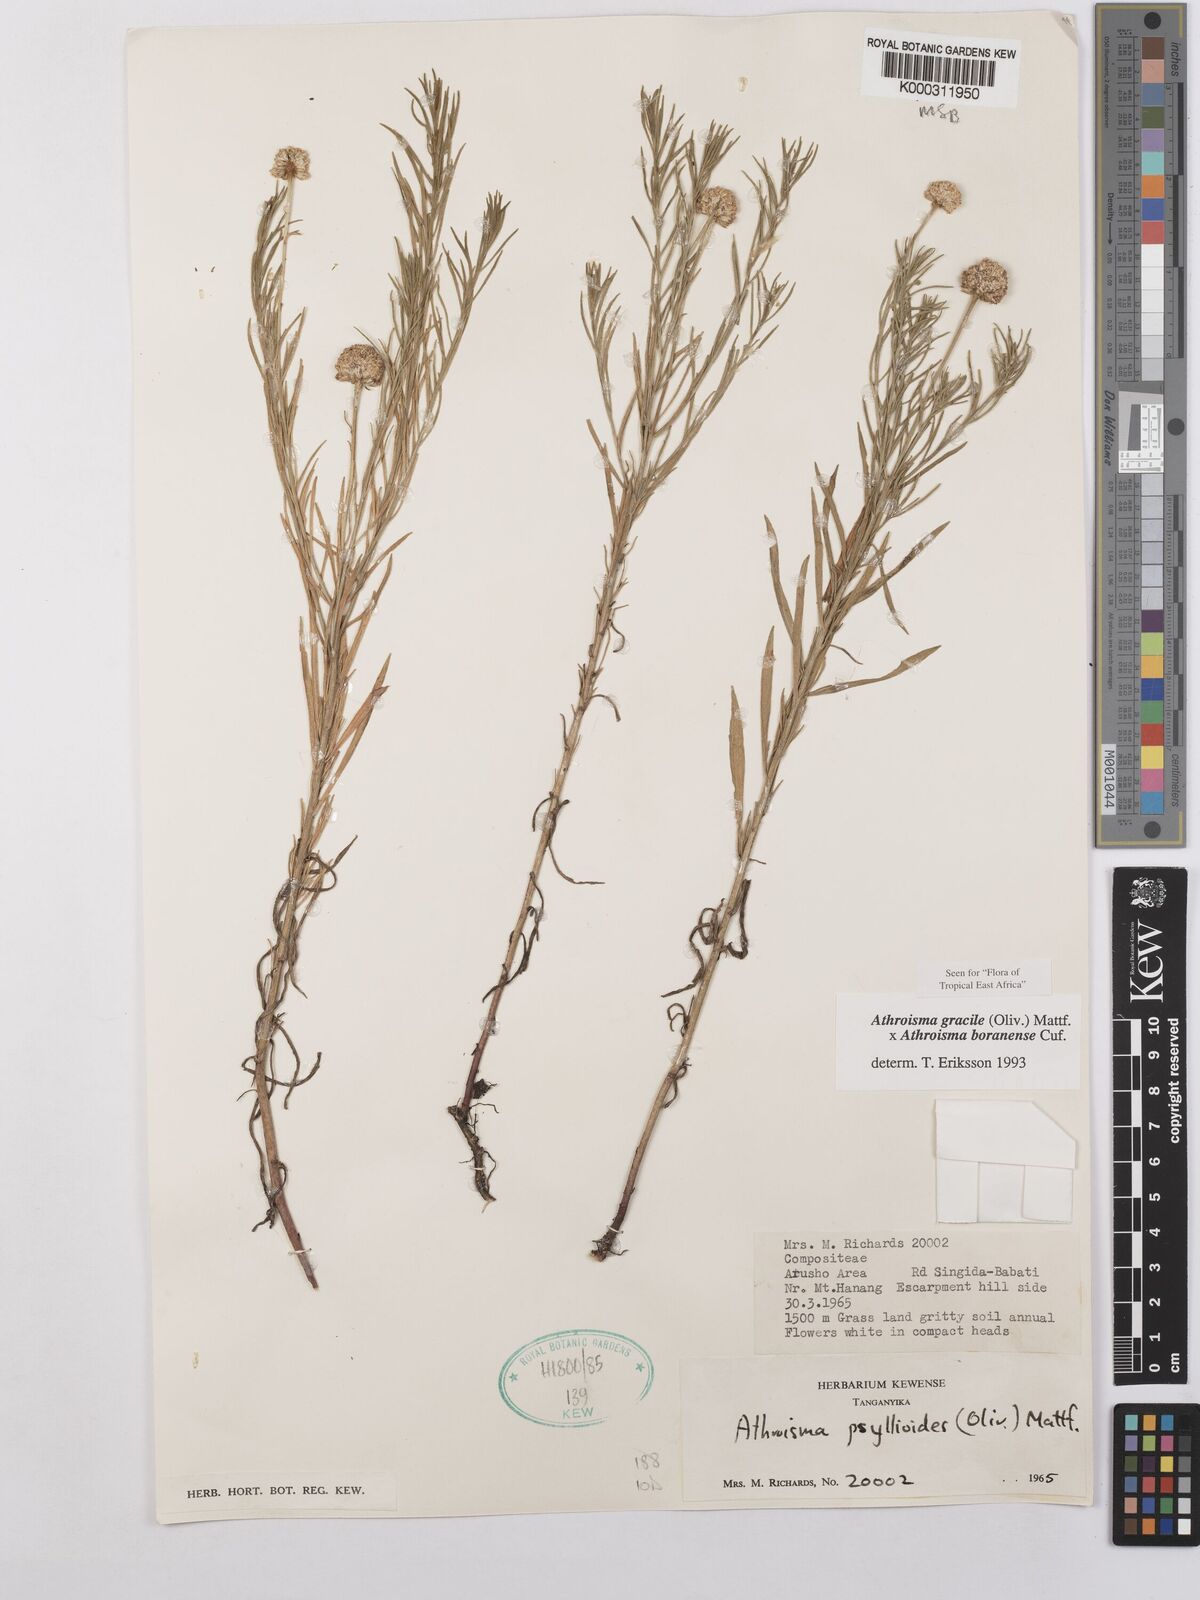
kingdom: Plantae
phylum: Tracheophyta
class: Magnoliopsida
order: Asterales
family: Asteraceae
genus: Athroisma
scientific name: Athroisma
